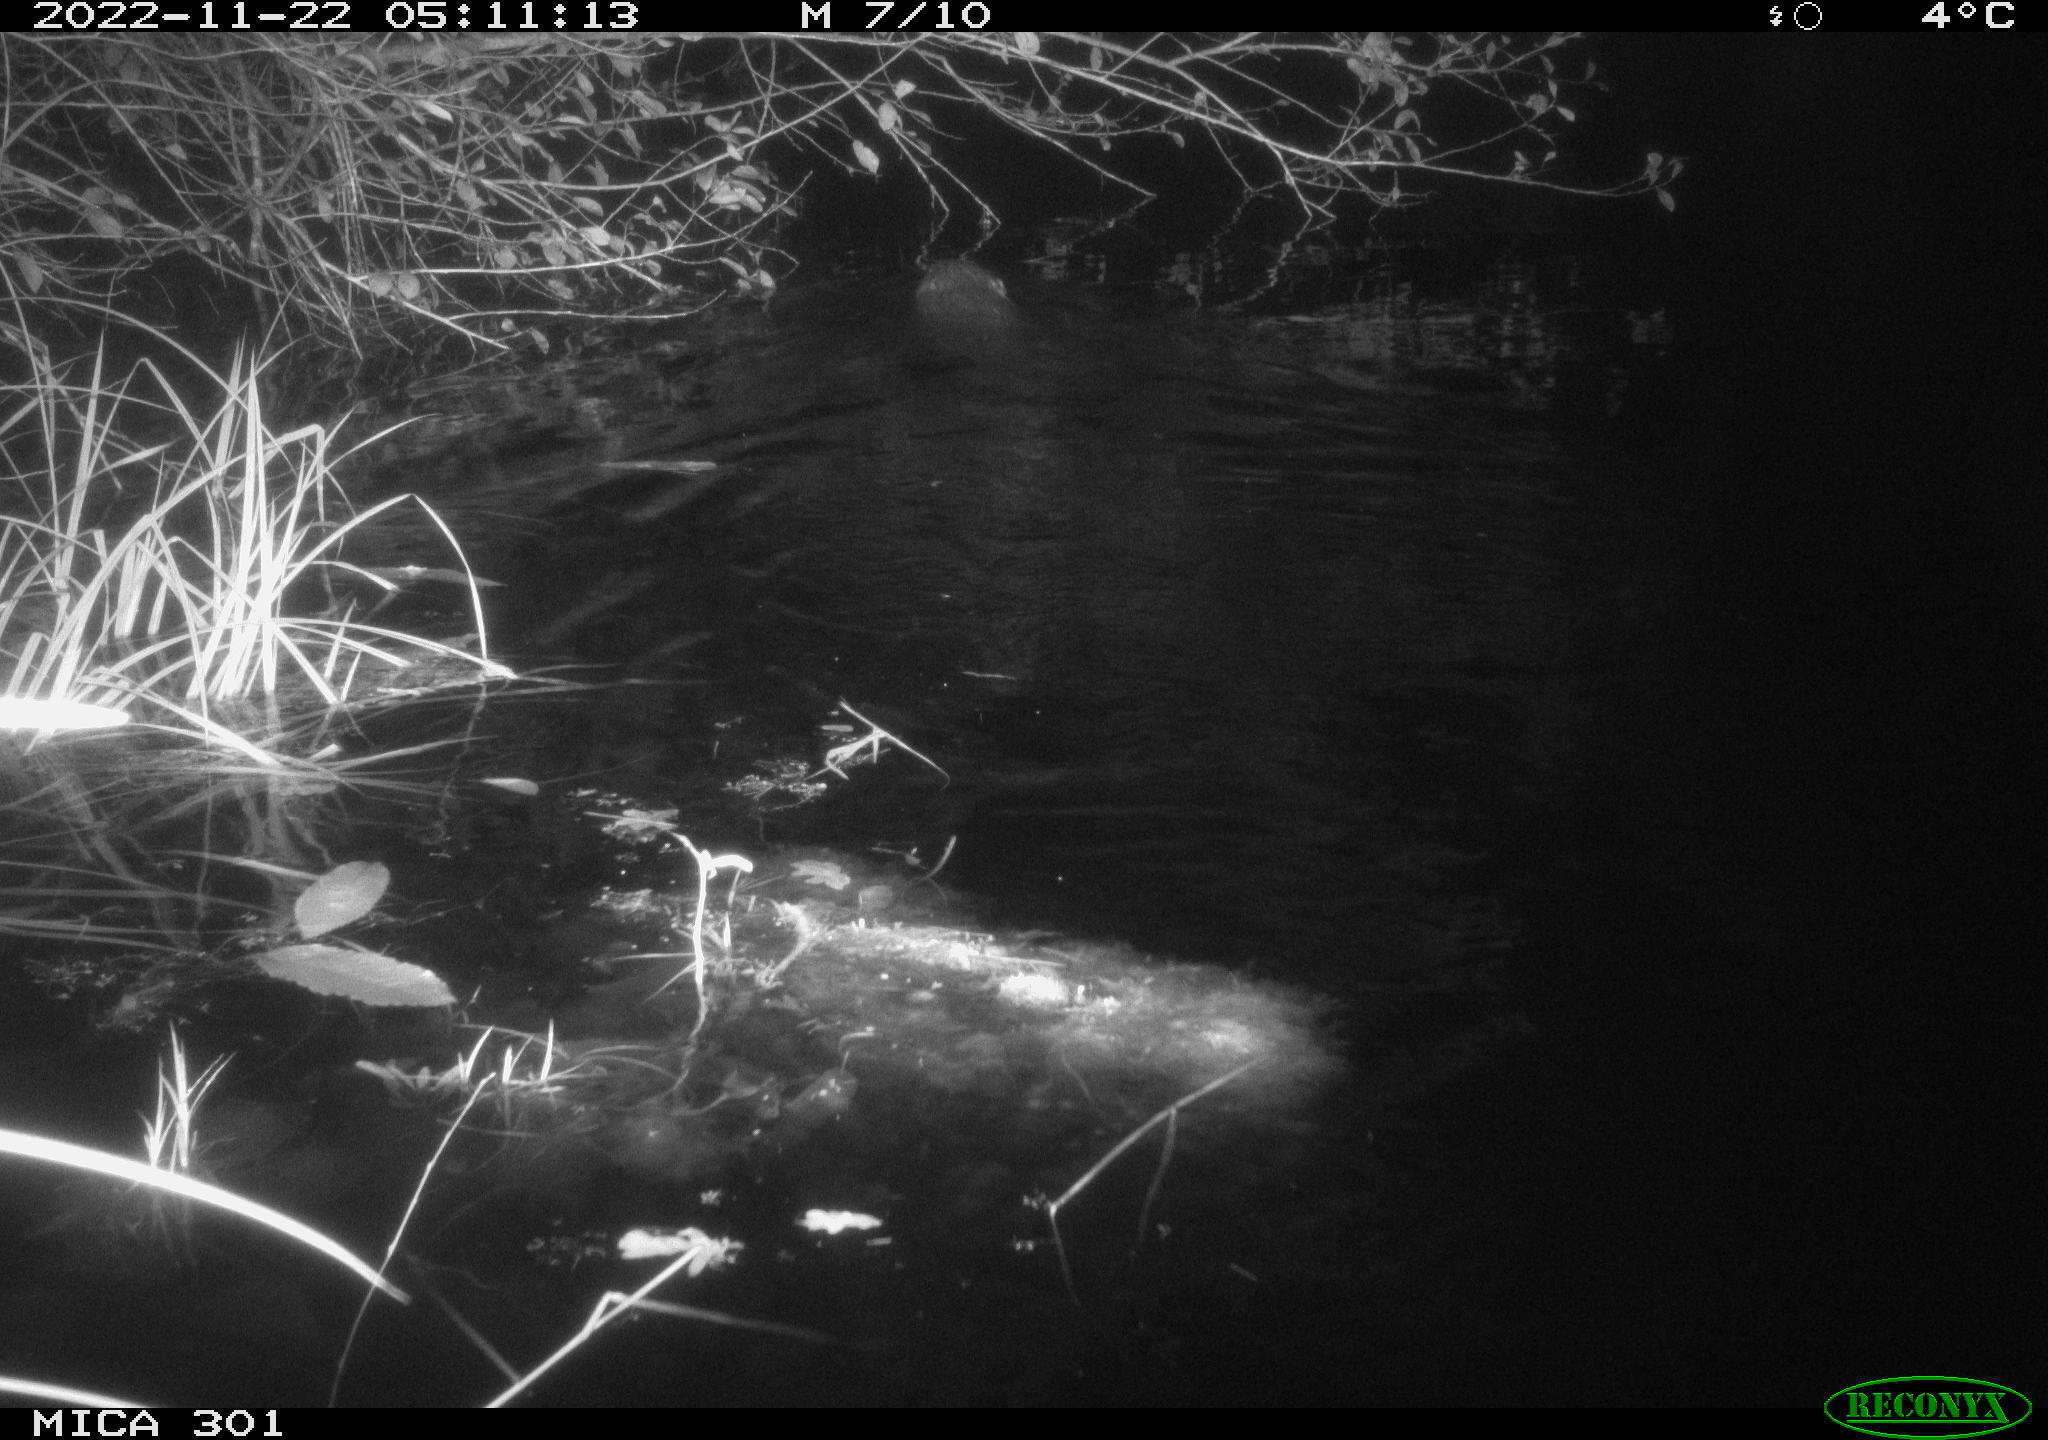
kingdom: Animalia
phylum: Chordata
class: Mammalia
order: Rodentia
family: Castoridae
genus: Castor
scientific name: Castor fiber
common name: Eurasian beaver
